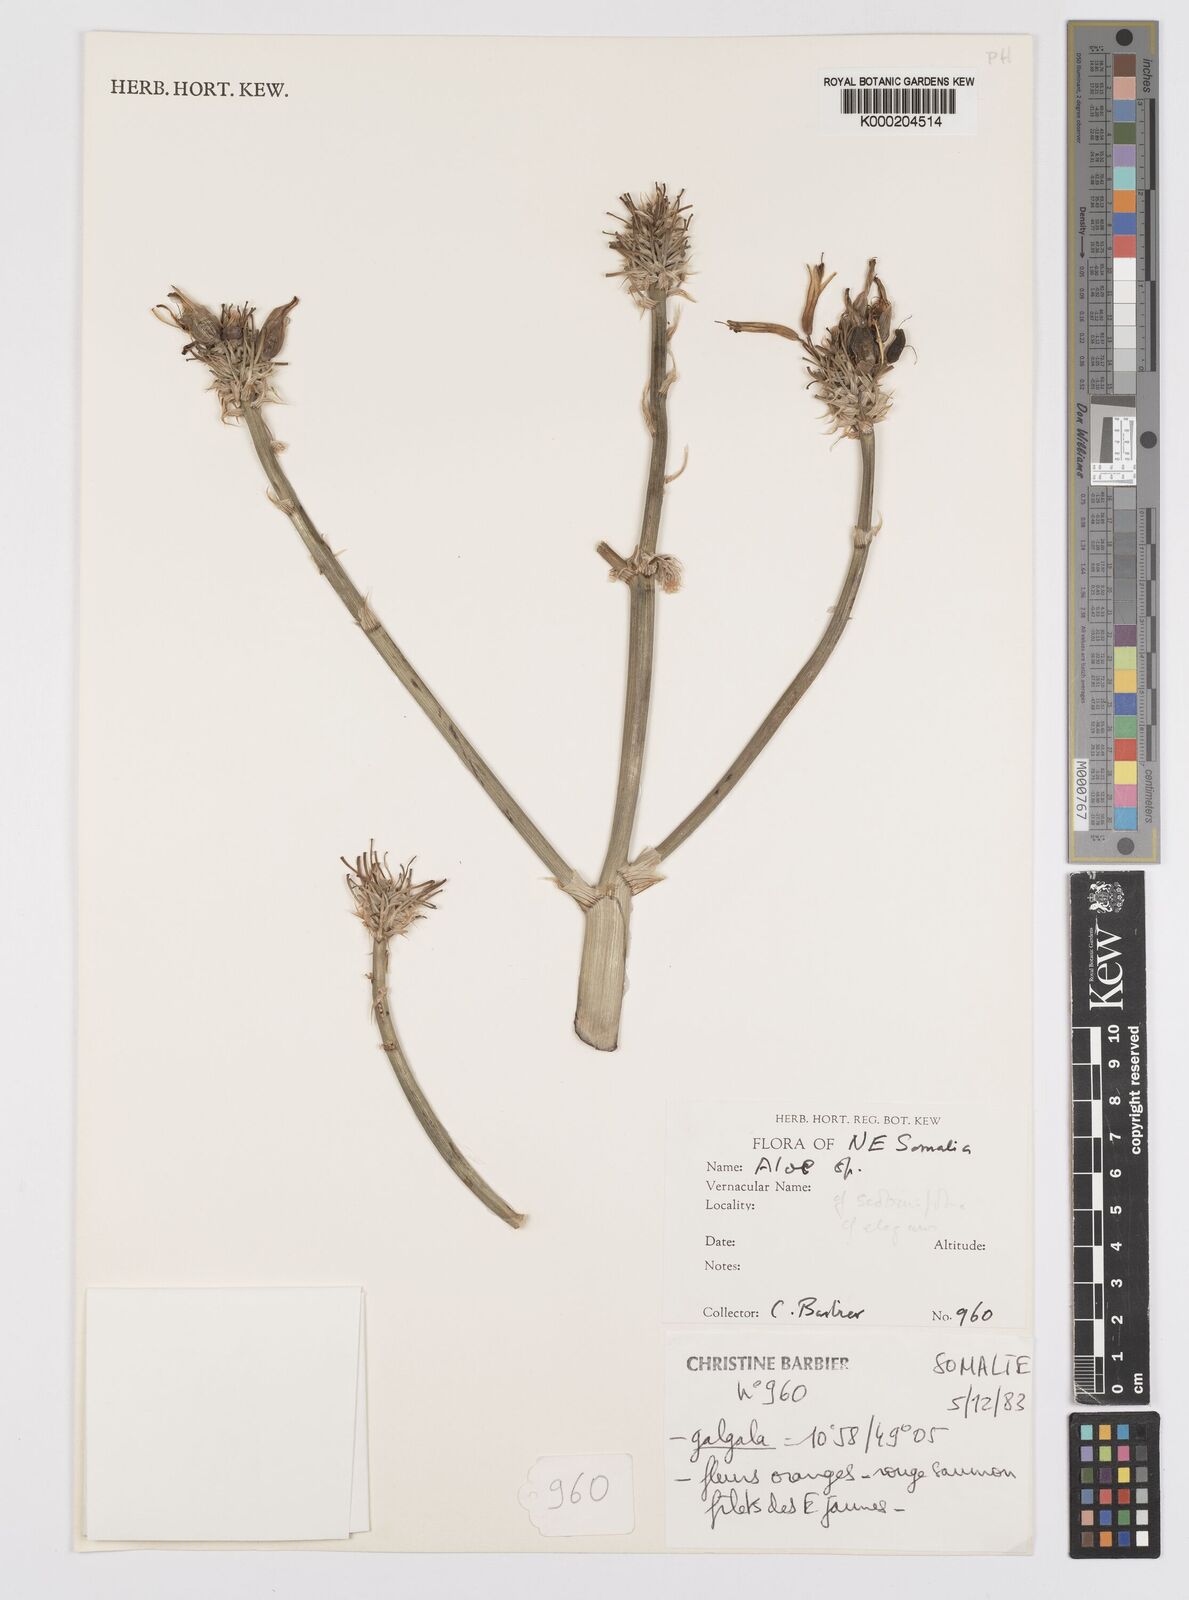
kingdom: Plantae
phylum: Tracheophyta
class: Liliopsida
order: Asparagales
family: Asphodelaceae
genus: Aloe
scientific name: Aloe scobinifolia
